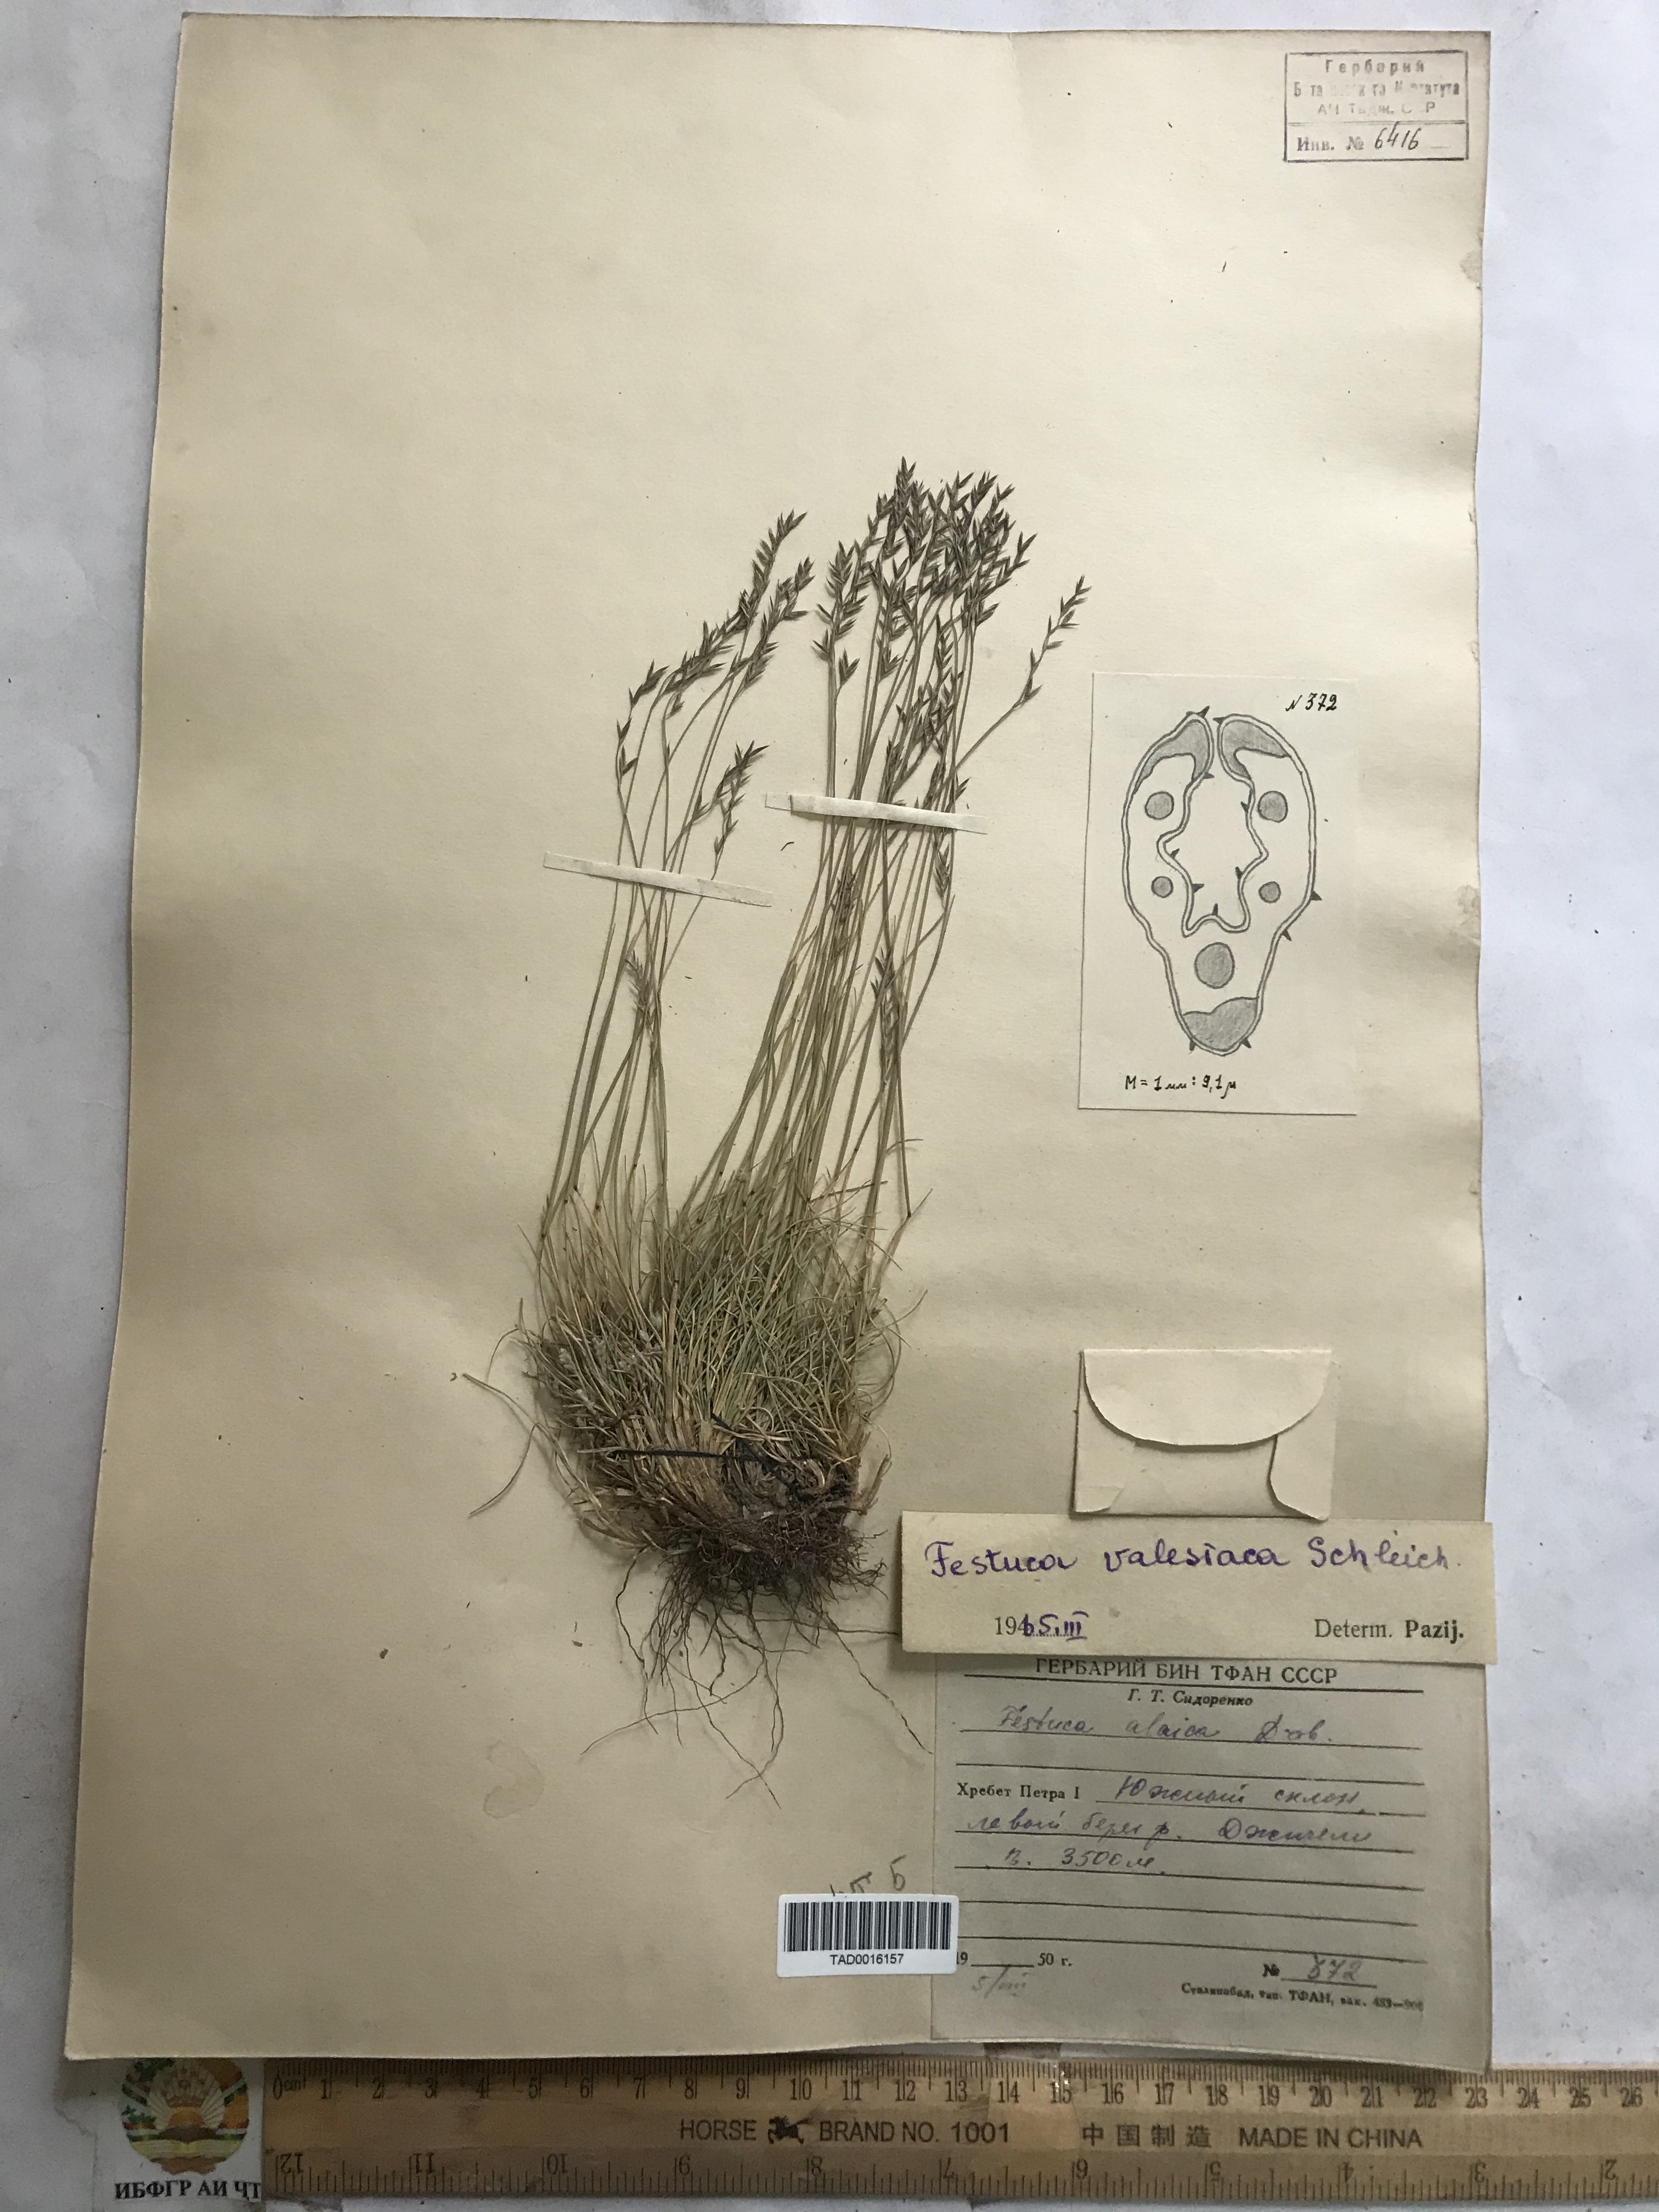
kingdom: Plantae
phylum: Tracheophyta
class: Liliopsida
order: Poales
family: Poaceae
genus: Festuca
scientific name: Festuca valesiaca
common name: Volga fescue
